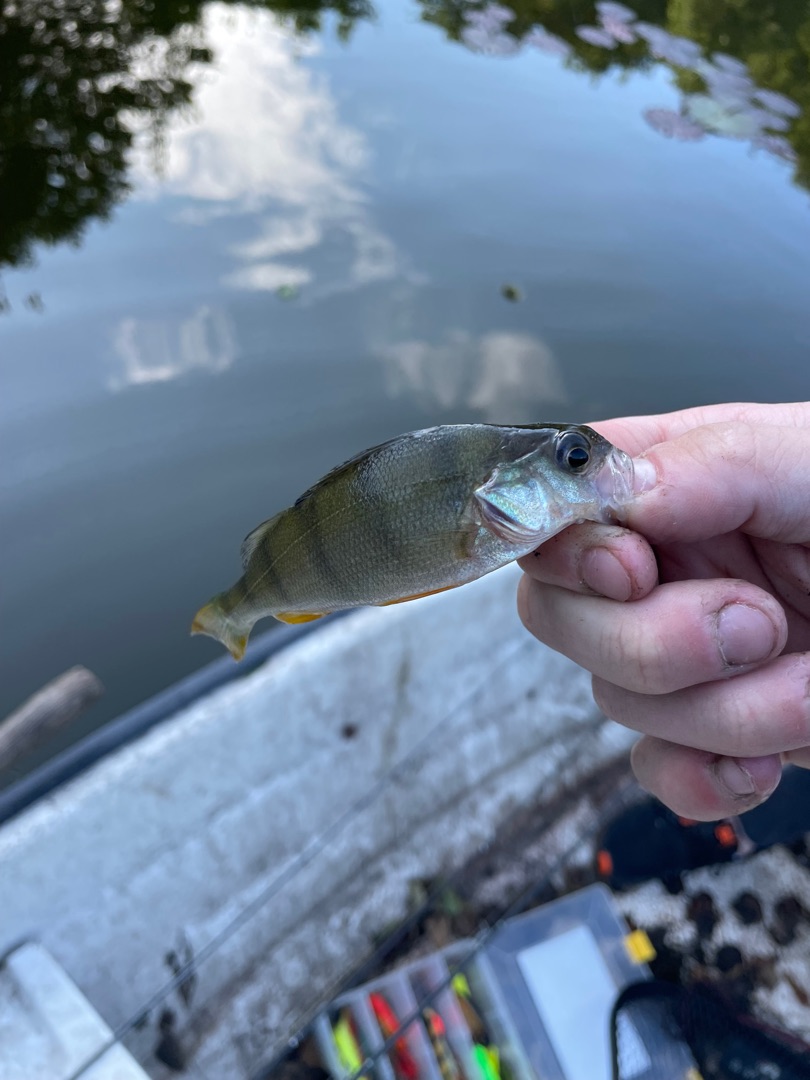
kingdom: Animalia
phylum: Chordata
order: Perciformes
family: Percidae
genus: Perca
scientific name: Perca fluviatilis
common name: Aborre
